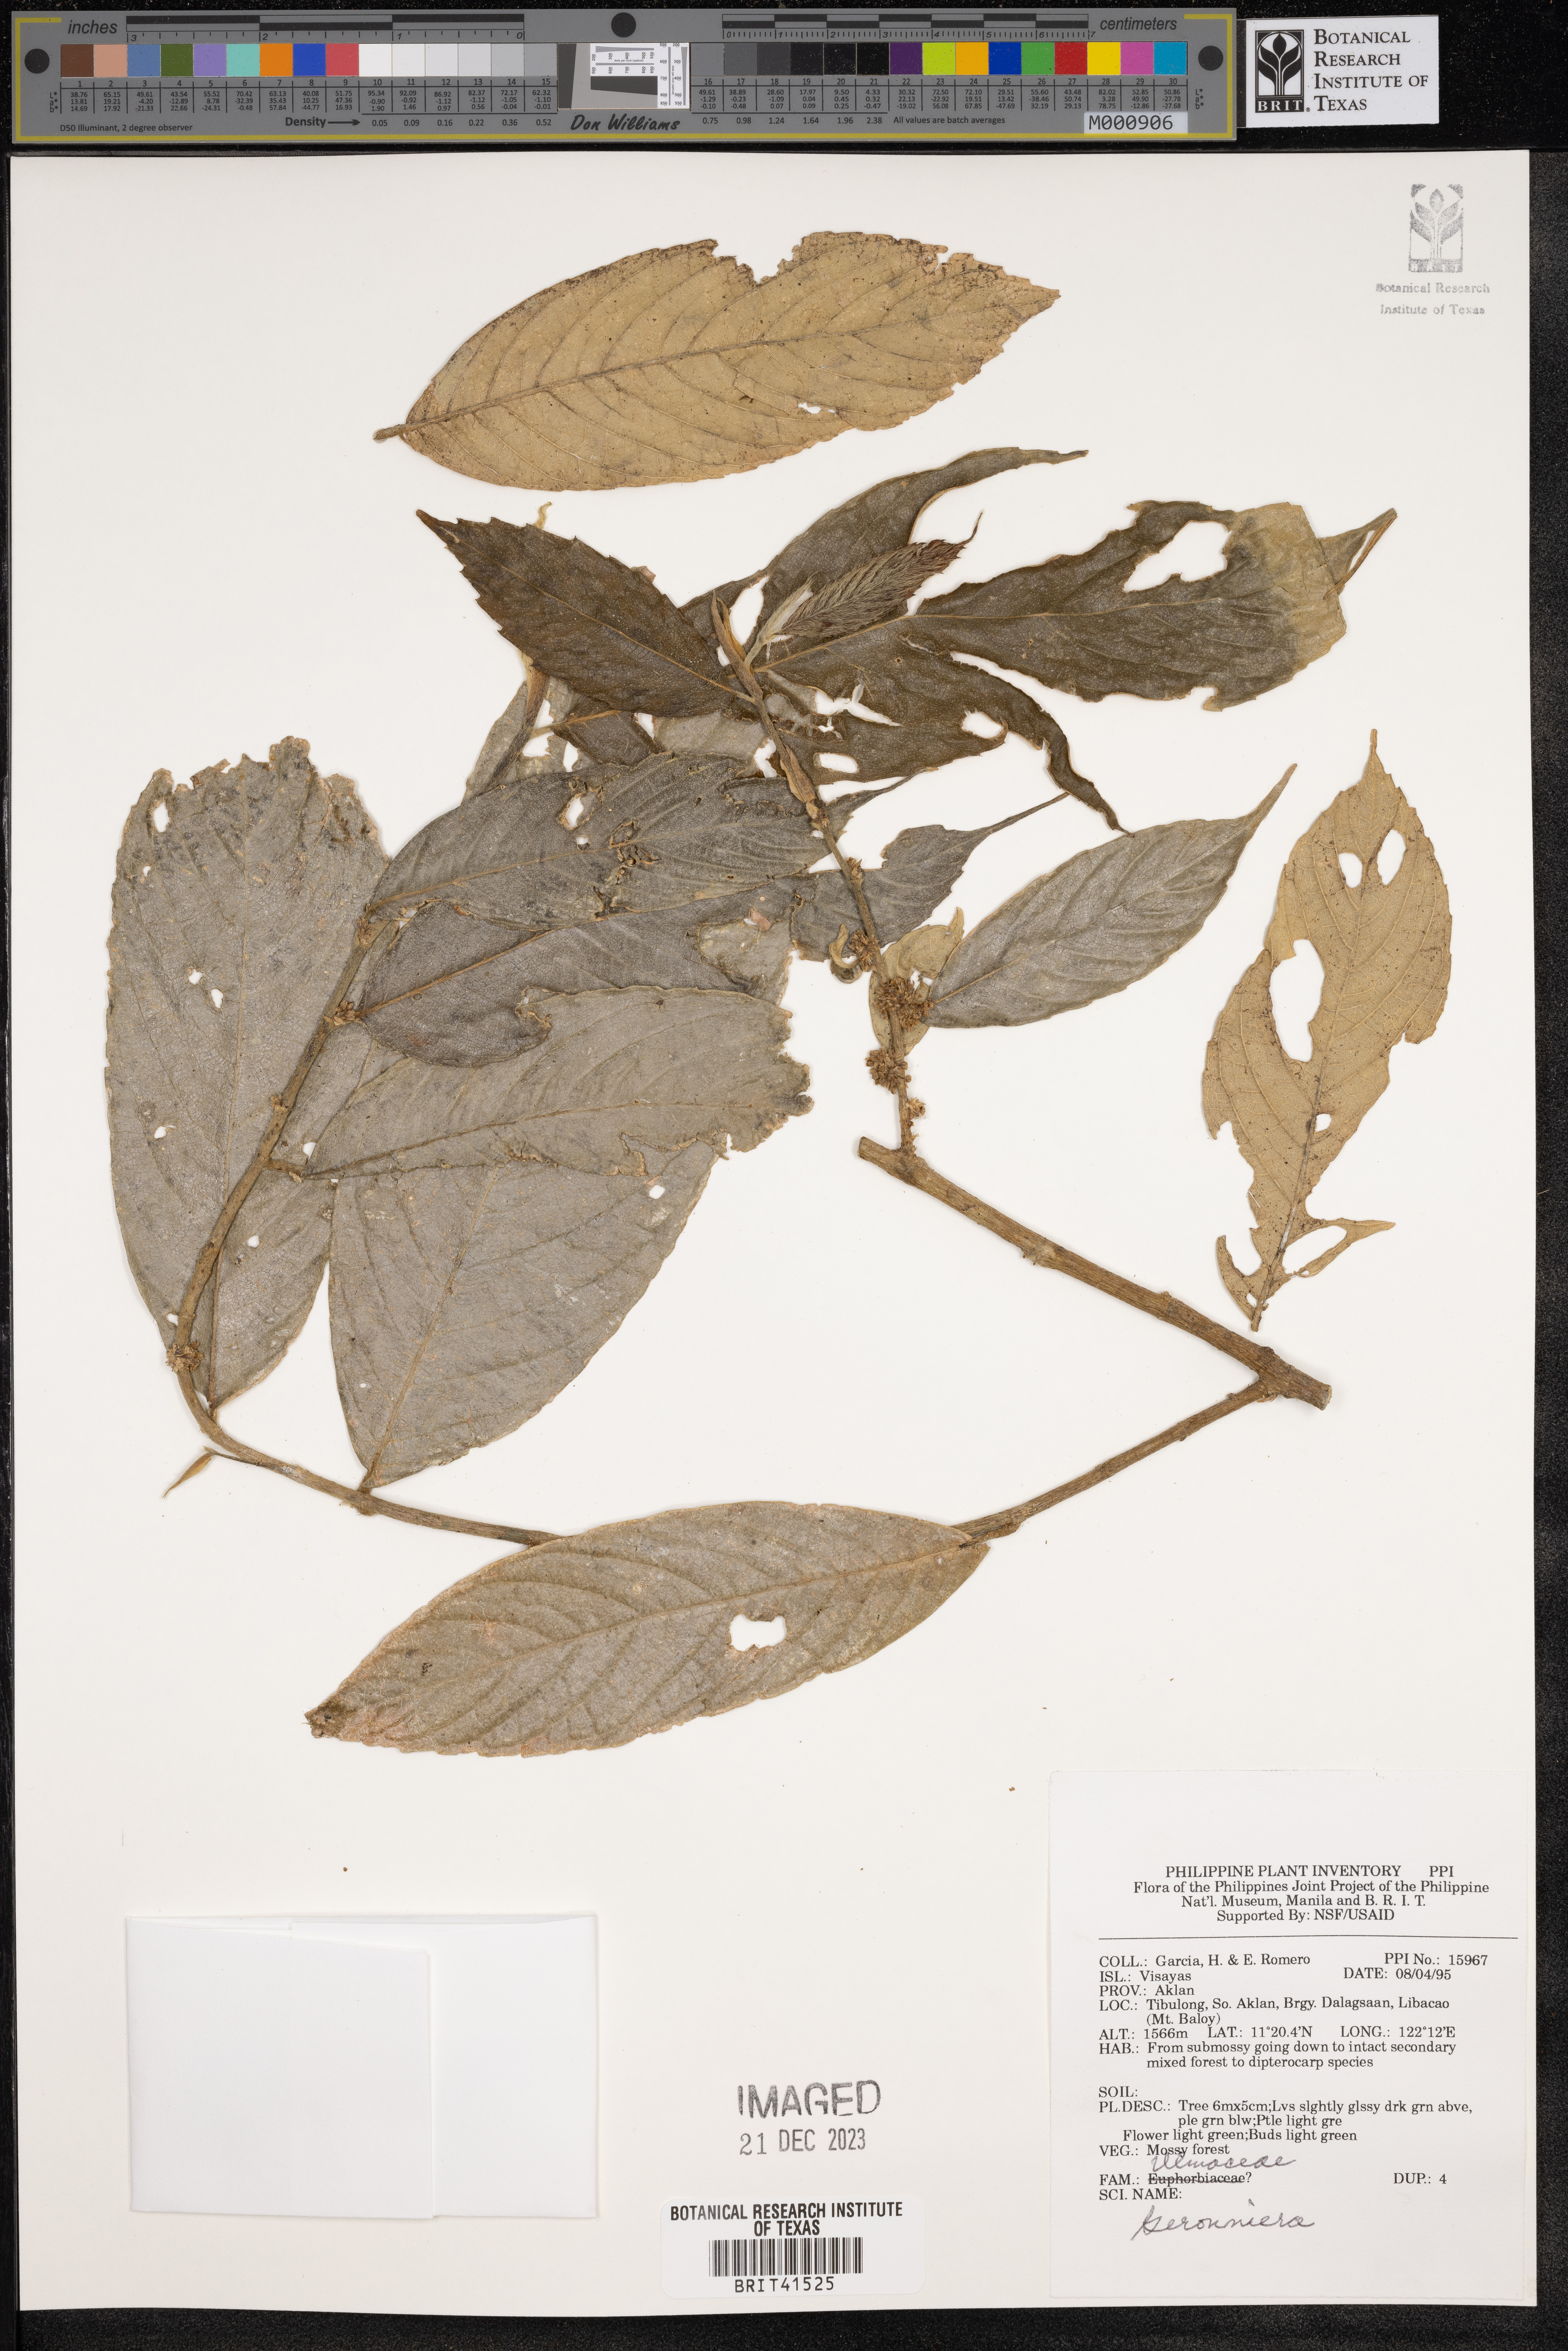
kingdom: Plantae
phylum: Tracheophyta
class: Magnoliopsida
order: Rosales
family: Cannabaceae
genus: Gironniera
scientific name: Gironniera
